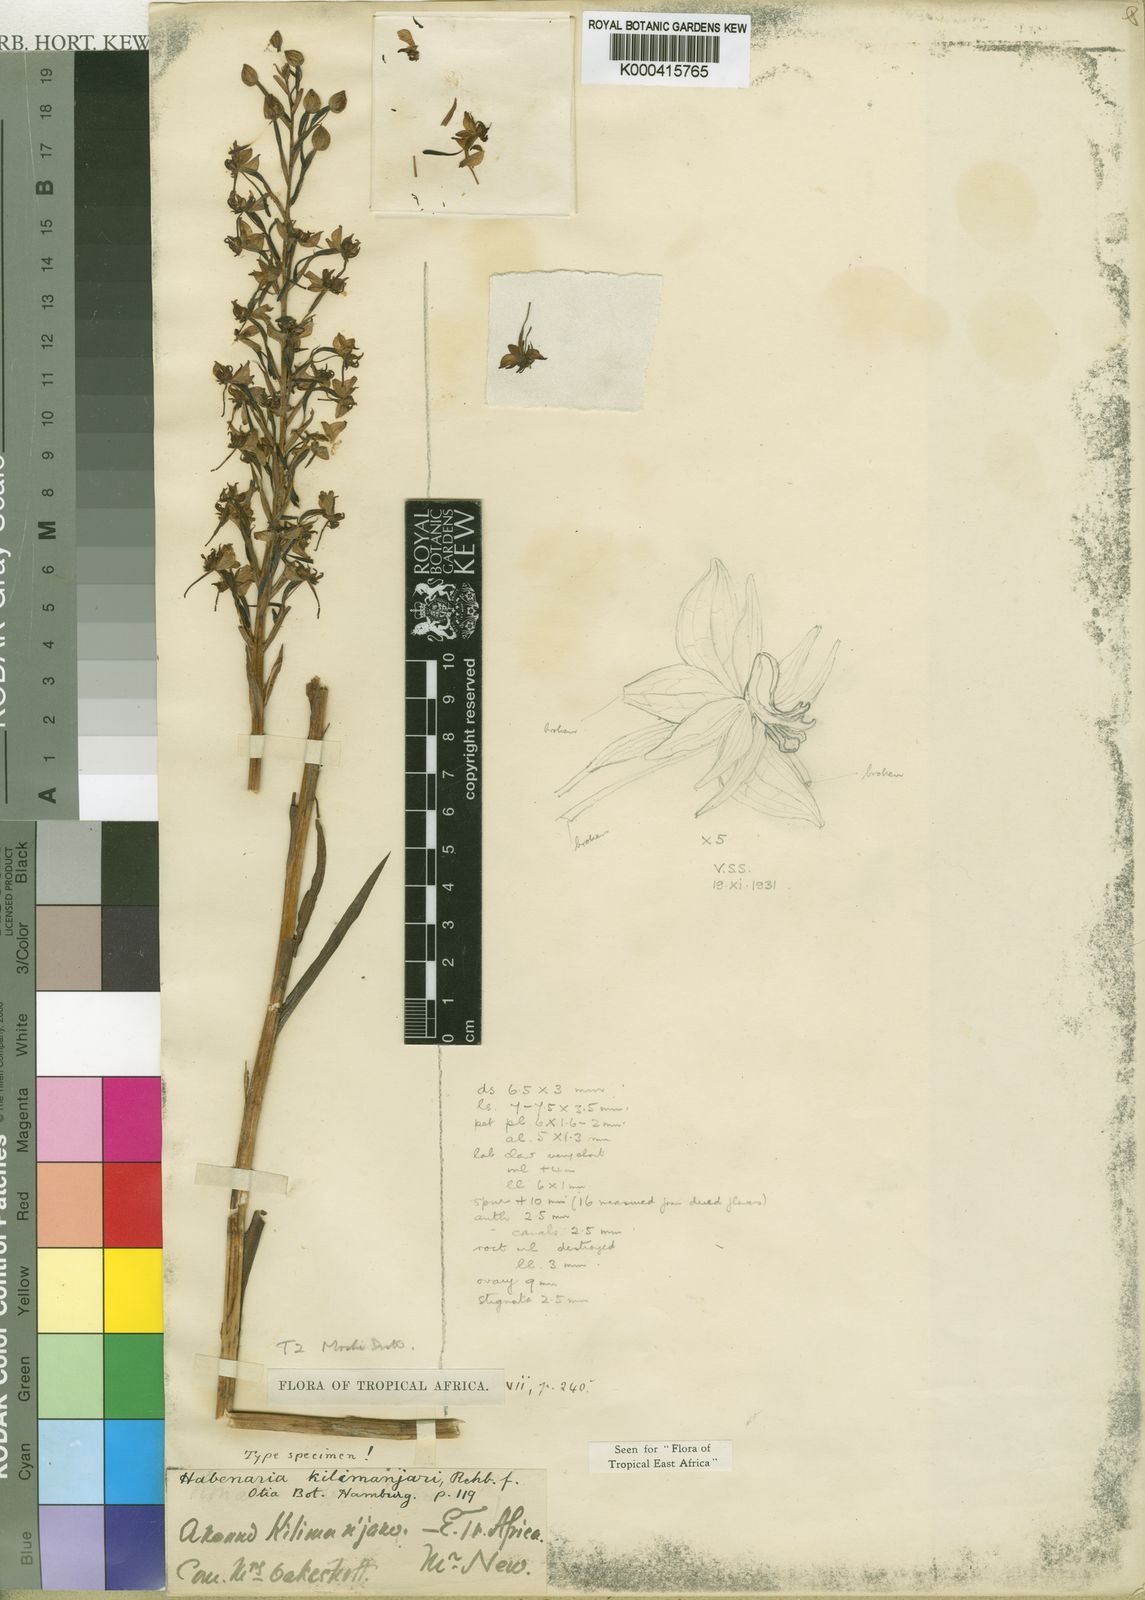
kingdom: Plantae
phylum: Tracheophyta
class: Liliopsida
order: Asparagales
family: Orchidaceae
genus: Habenaria
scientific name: Habenaria kilimanjari
